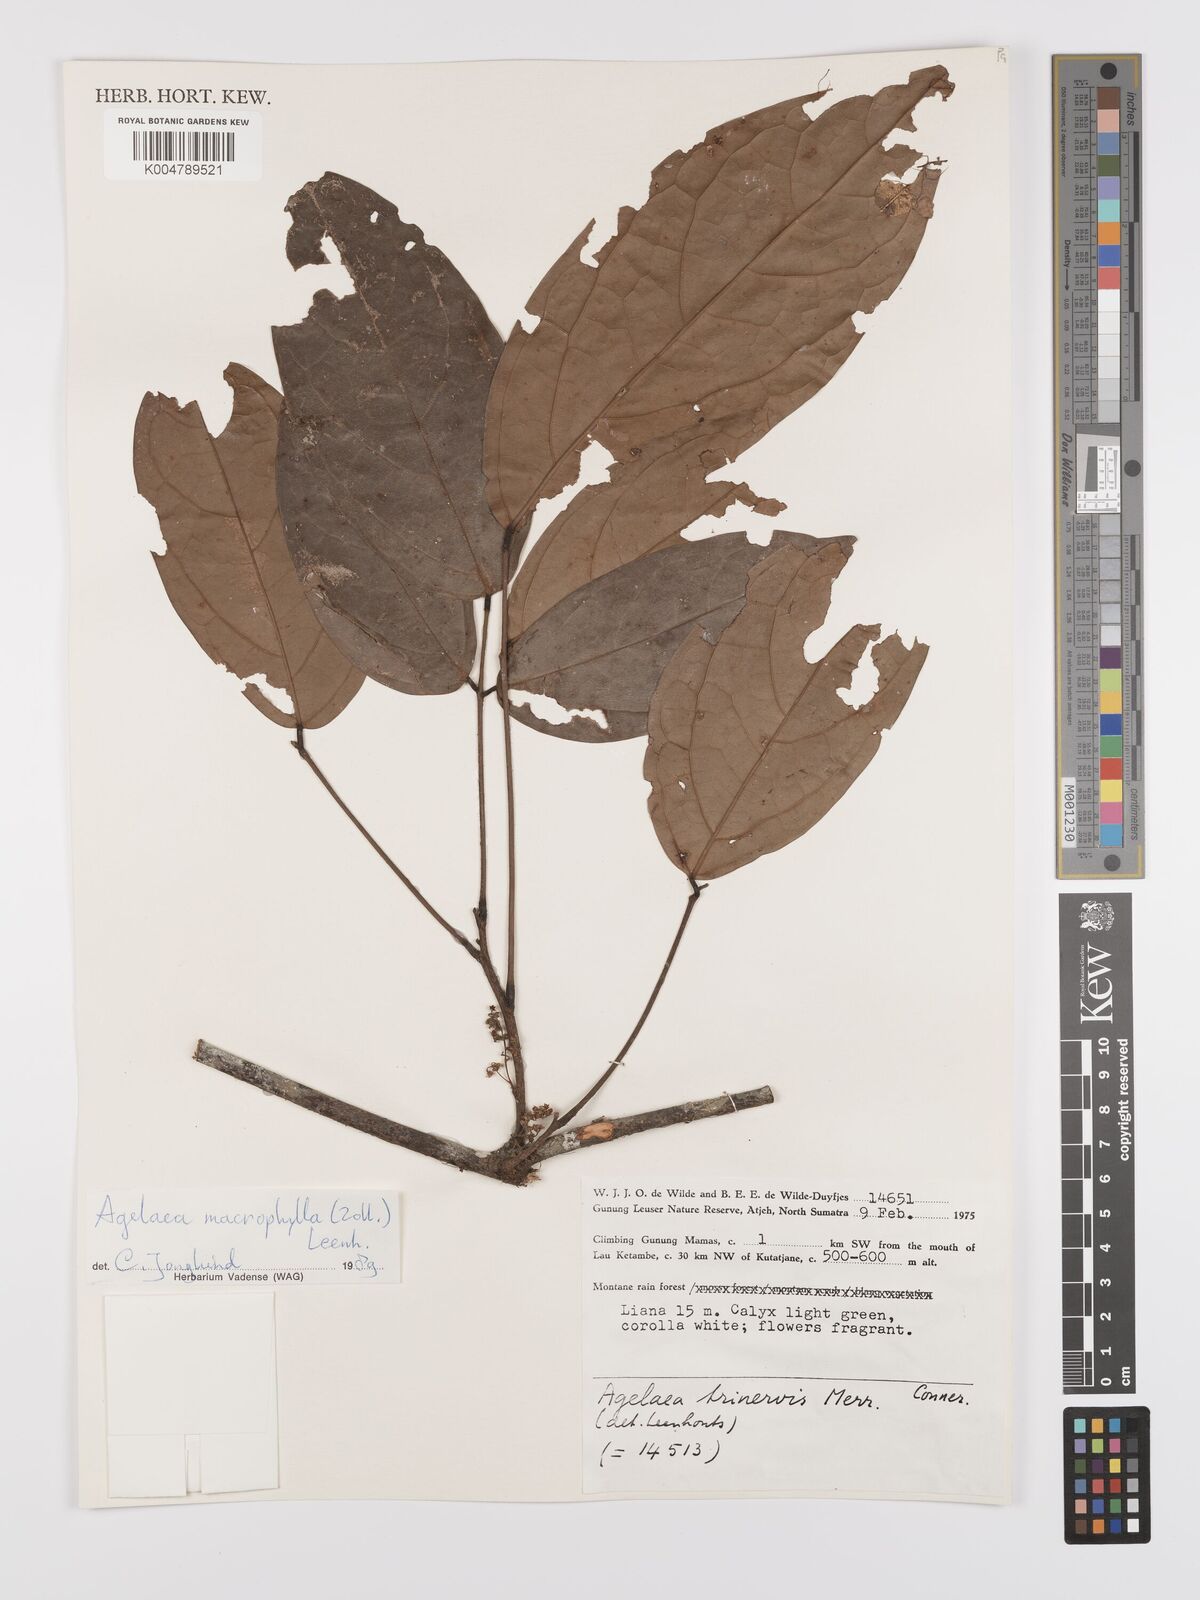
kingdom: Plantae
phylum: Tracheophyta
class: Magnoliopsida
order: Oxalidales
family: Connaraceae
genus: Agelaea
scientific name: Agelaea trinervis
